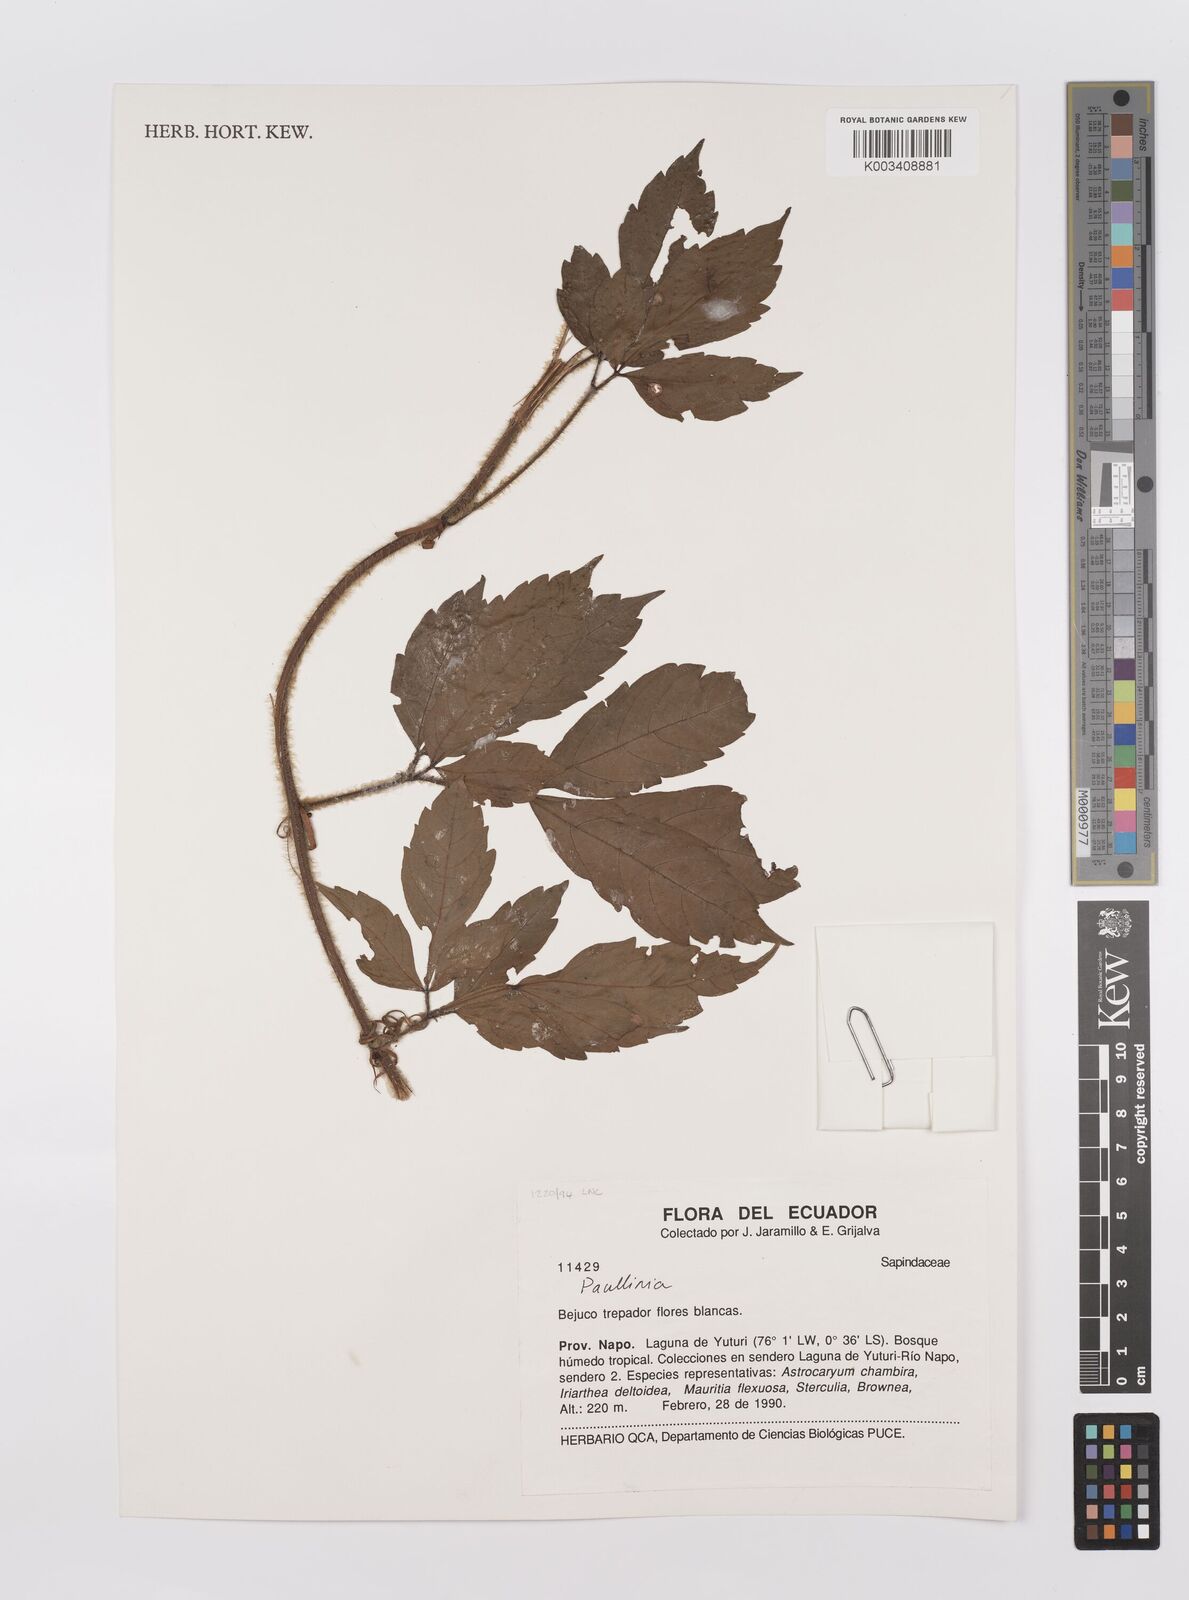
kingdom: Plantae
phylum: Tracheophyta
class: Magnoliopsida
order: Sapindales
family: Sapindaceae
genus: Paullinia
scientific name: Paullinia
